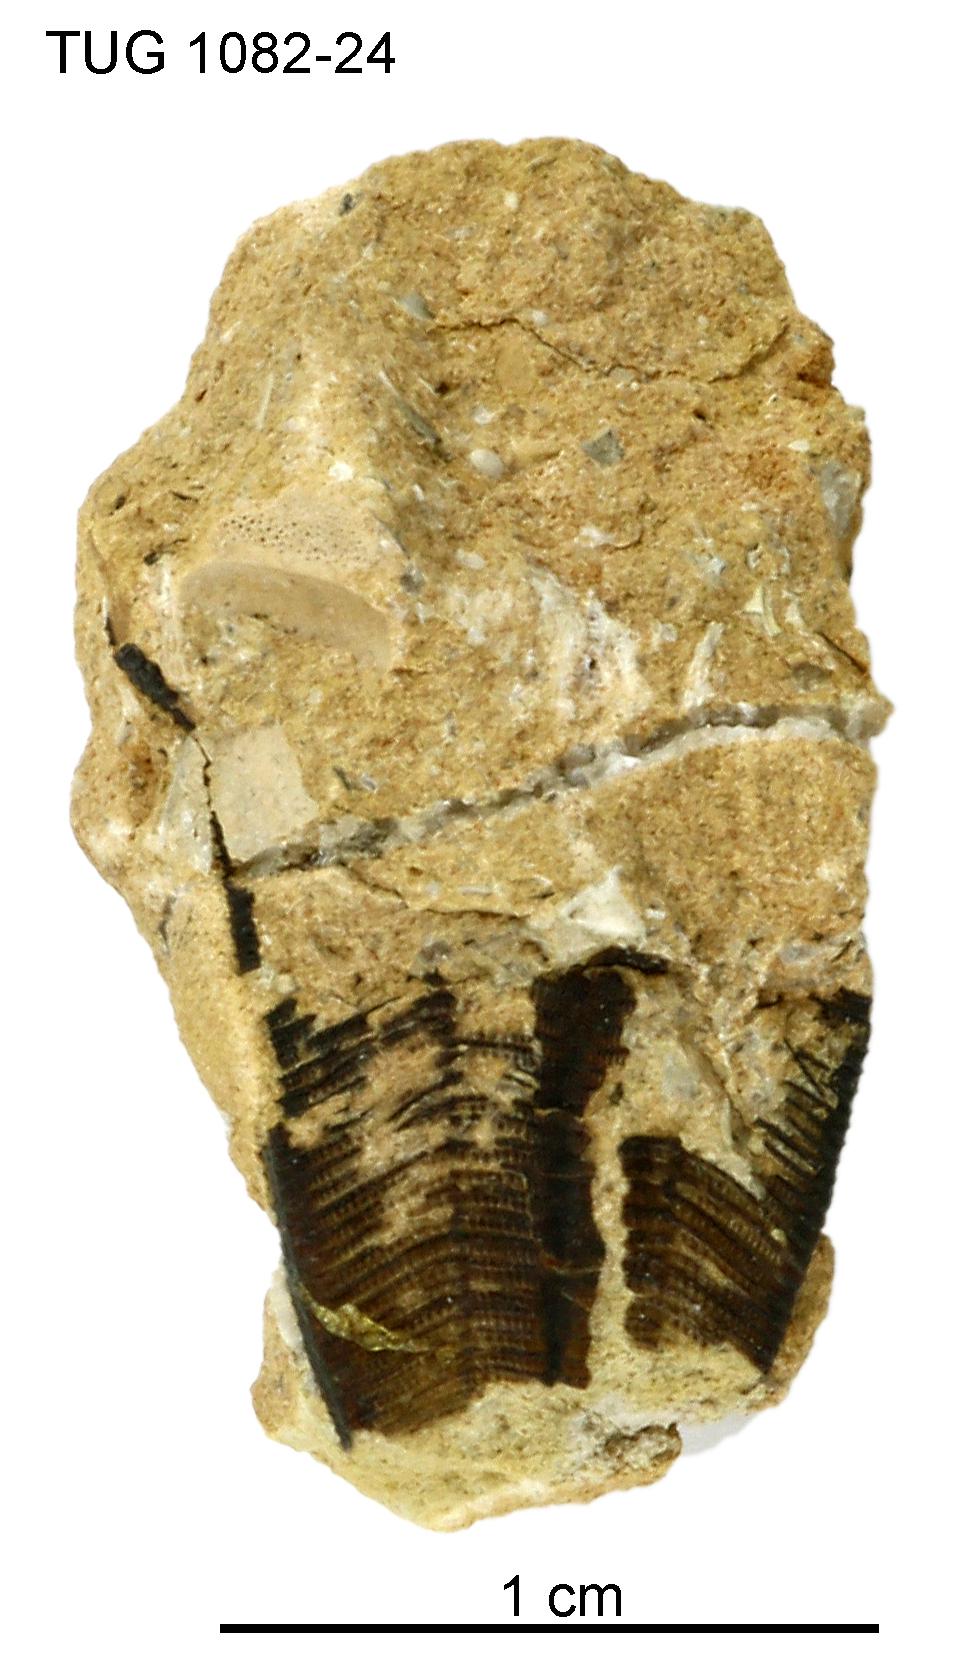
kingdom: Animalia
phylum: Cnidaria
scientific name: Cnidaria
